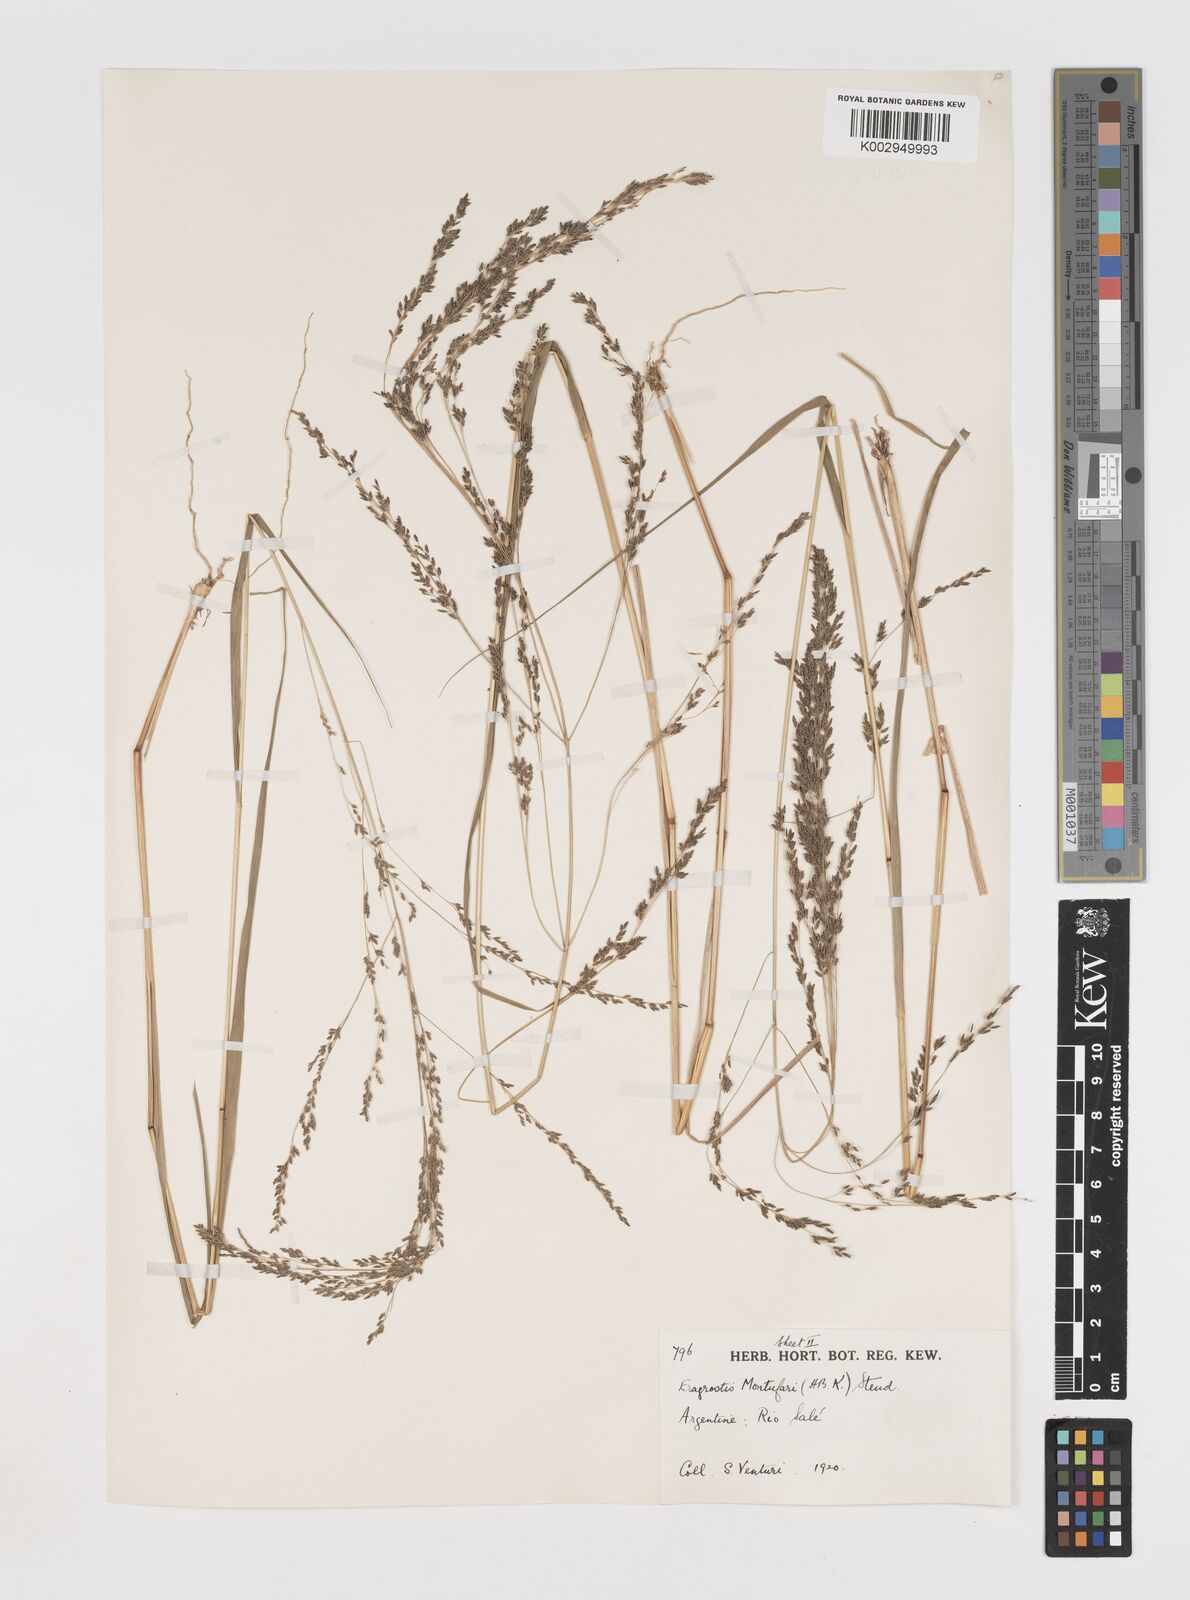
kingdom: Plantae
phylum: Tracheophyta
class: Liliopsida
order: Poales
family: Poaceae
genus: Eragrostis
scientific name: Eragrostis pastoensis
